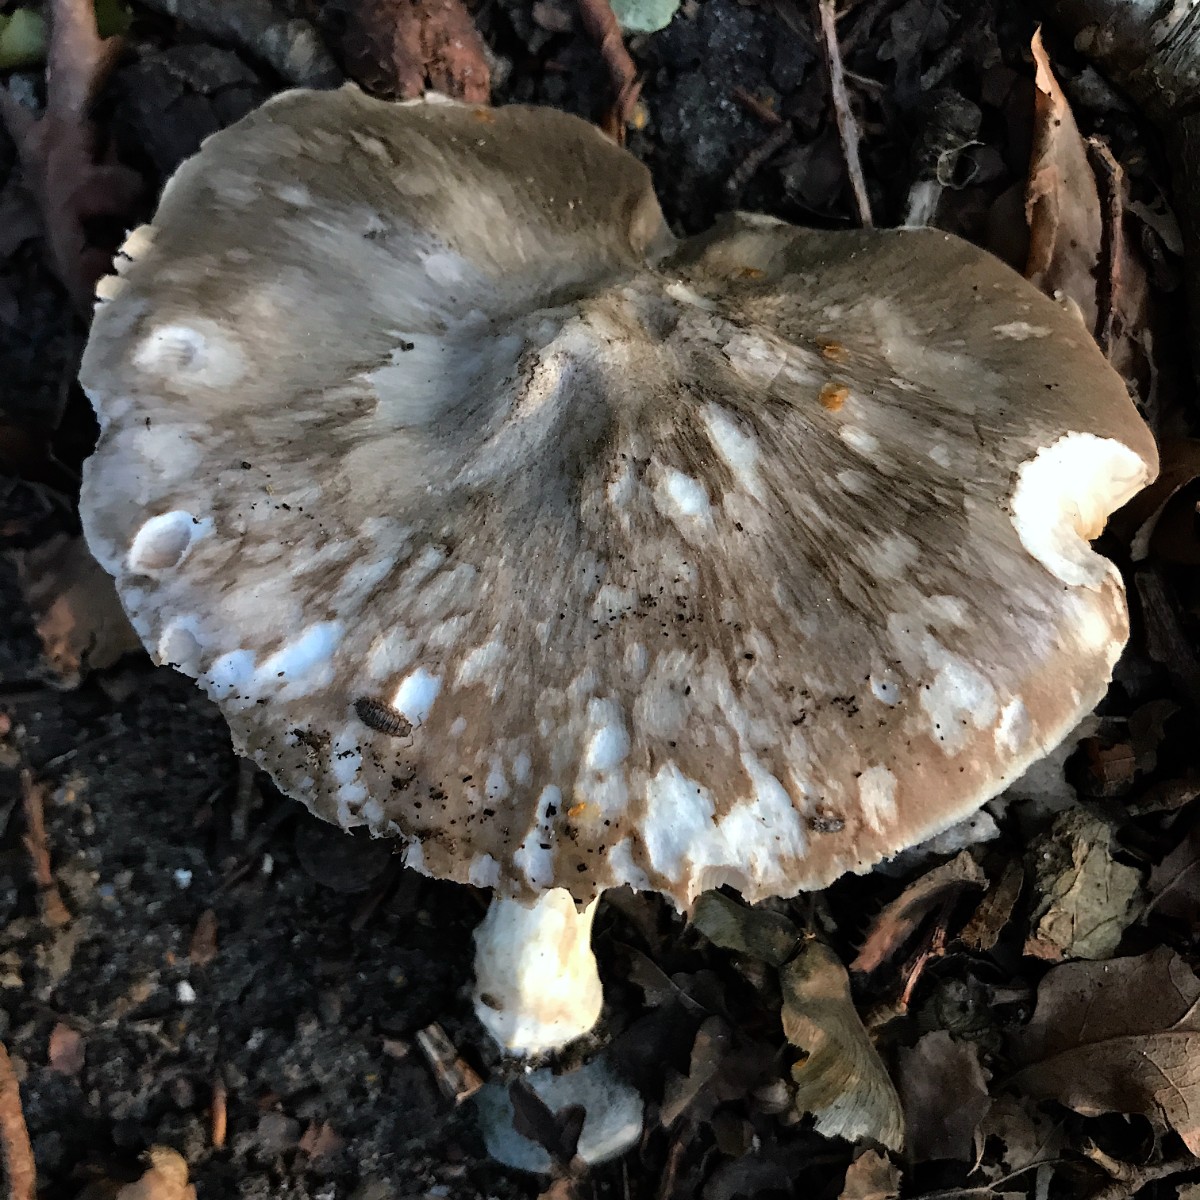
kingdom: Fungi
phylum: Basidiomycota
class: Agaricomycetes
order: Agaricales
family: Pluteaceae
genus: Pluteus
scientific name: Pluteus cervinus
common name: sodfarvet skærmhat
